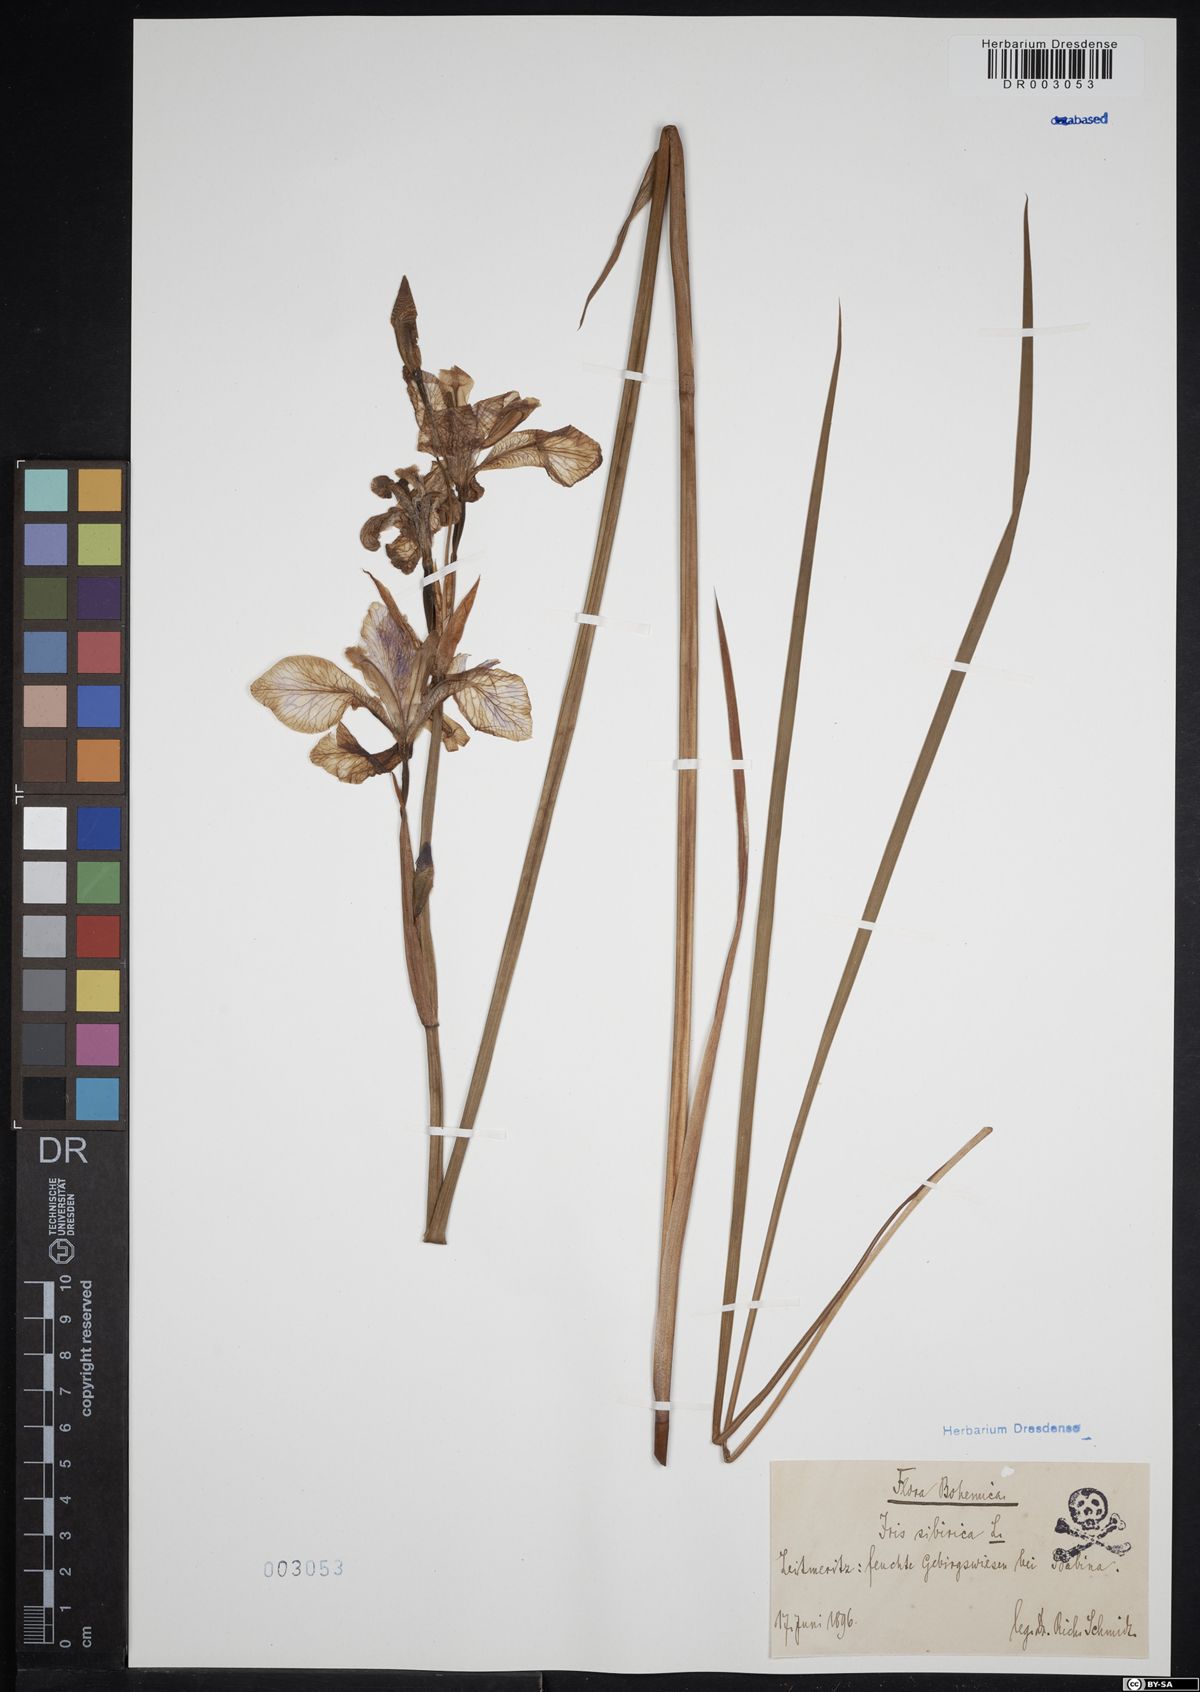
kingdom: Plantae
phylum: Tracheophyta
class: Liliopsida
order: Asparagales
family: Iridaceae
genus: Iris
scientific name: Iris sibirica
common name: Siberian iris
